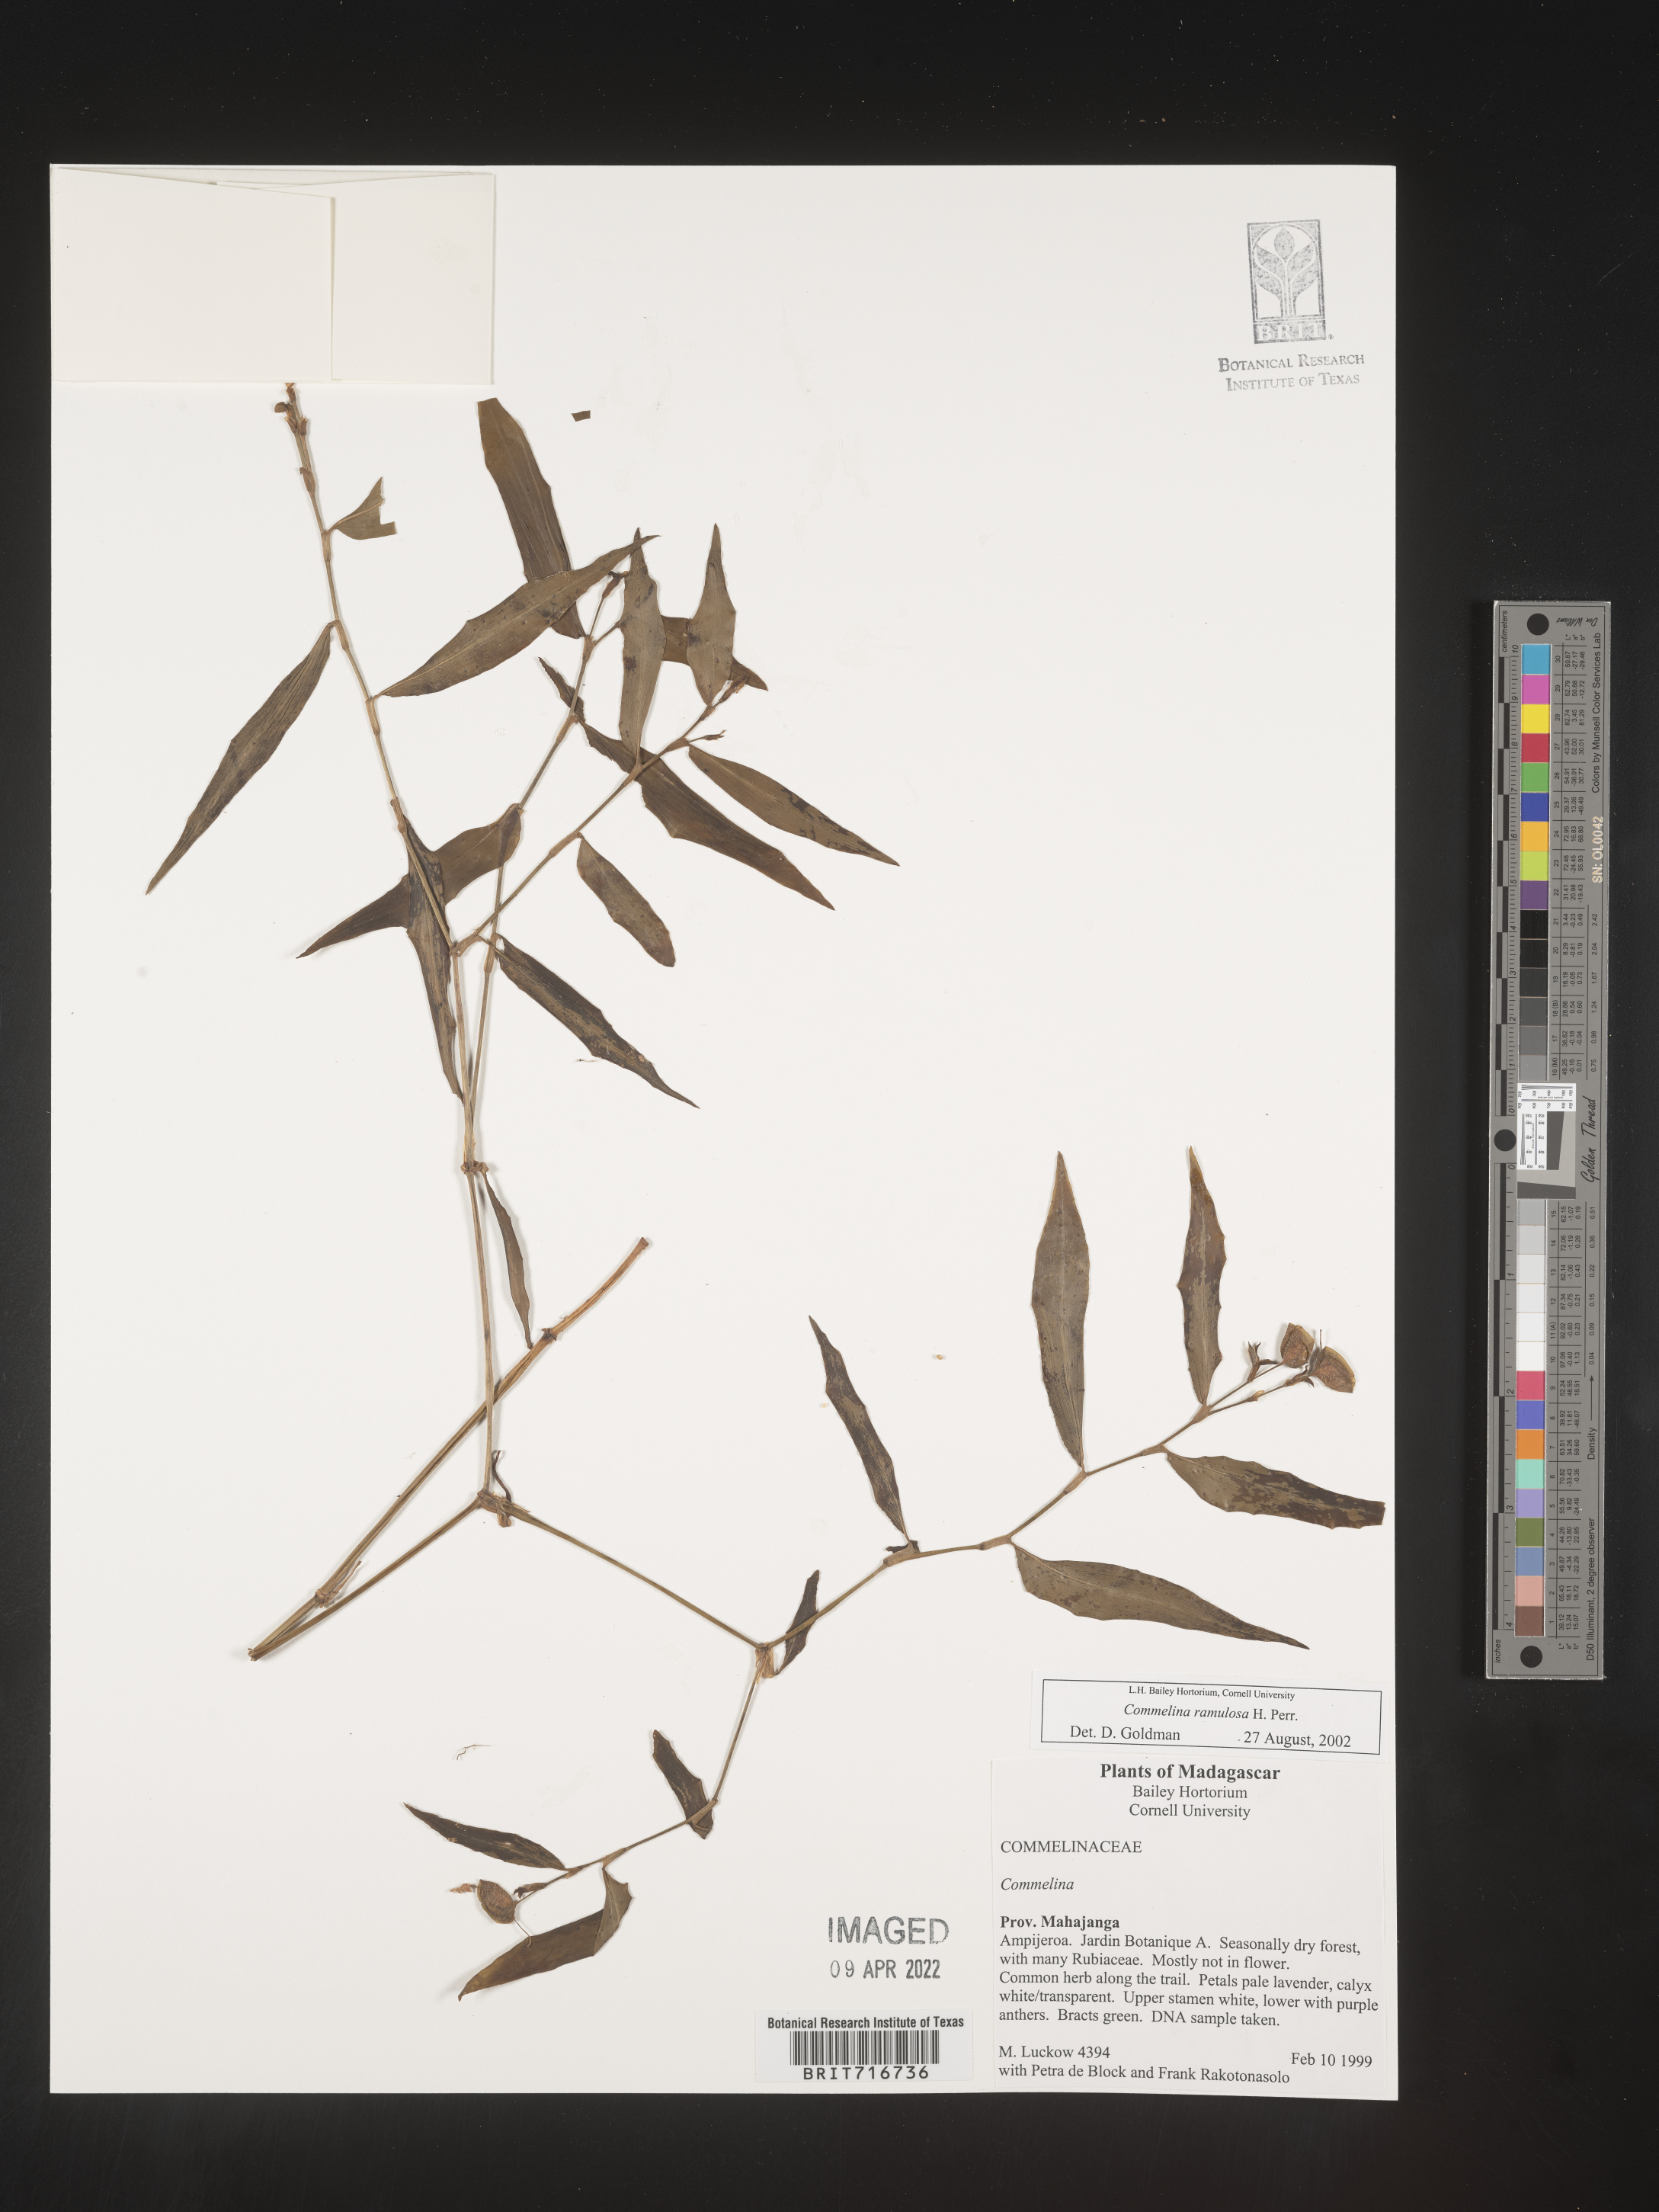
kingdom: Plantae
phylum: Tracheophyta
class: Liliopsida
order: Commelinales
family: Commelinaceae
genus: Commelina
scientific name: Commelina
